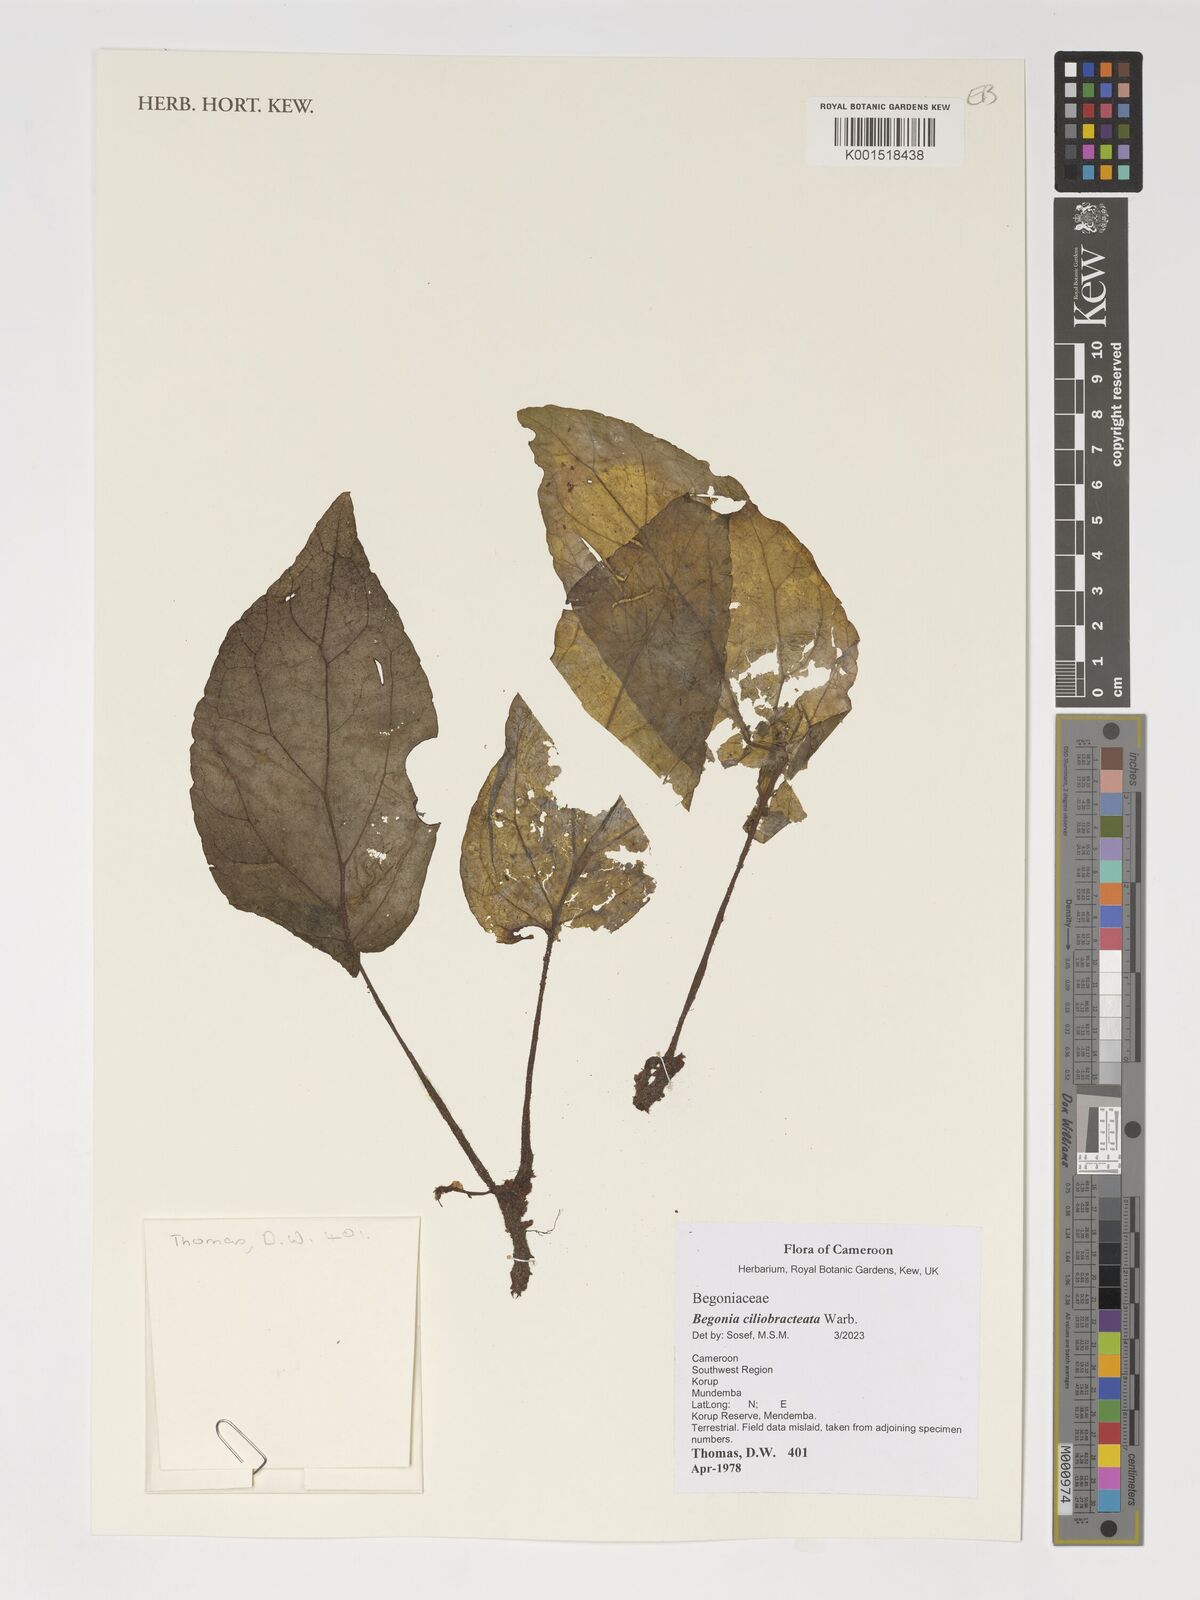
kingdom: Plantae
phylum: Tracheophyta
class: Magnoliopsida
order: Cucurbitales
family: Begoniaceae
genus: Begonia
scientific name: Begonia ciliobracteata
